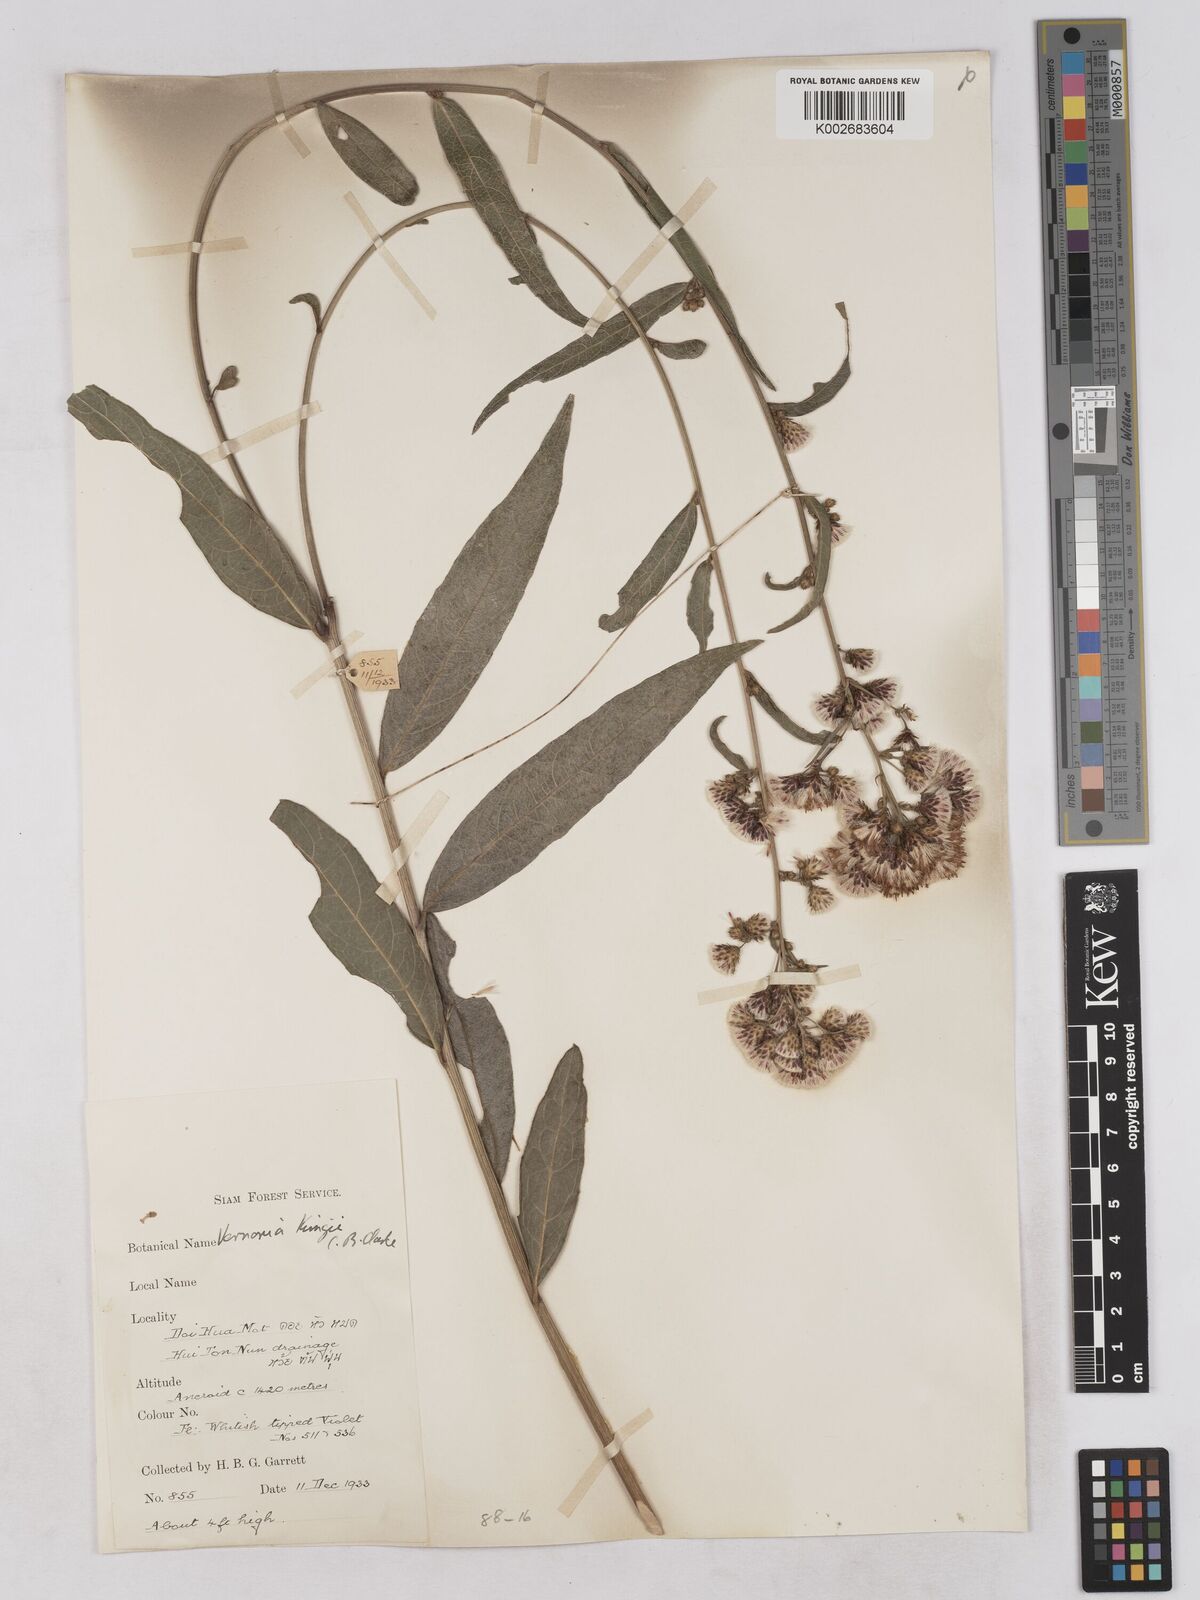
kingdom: Plantae
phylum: Tracheophyta
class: Magnoliopsida
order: Asterales
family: Asteraceae
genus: Acilepis
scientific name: Acilepis kingii
